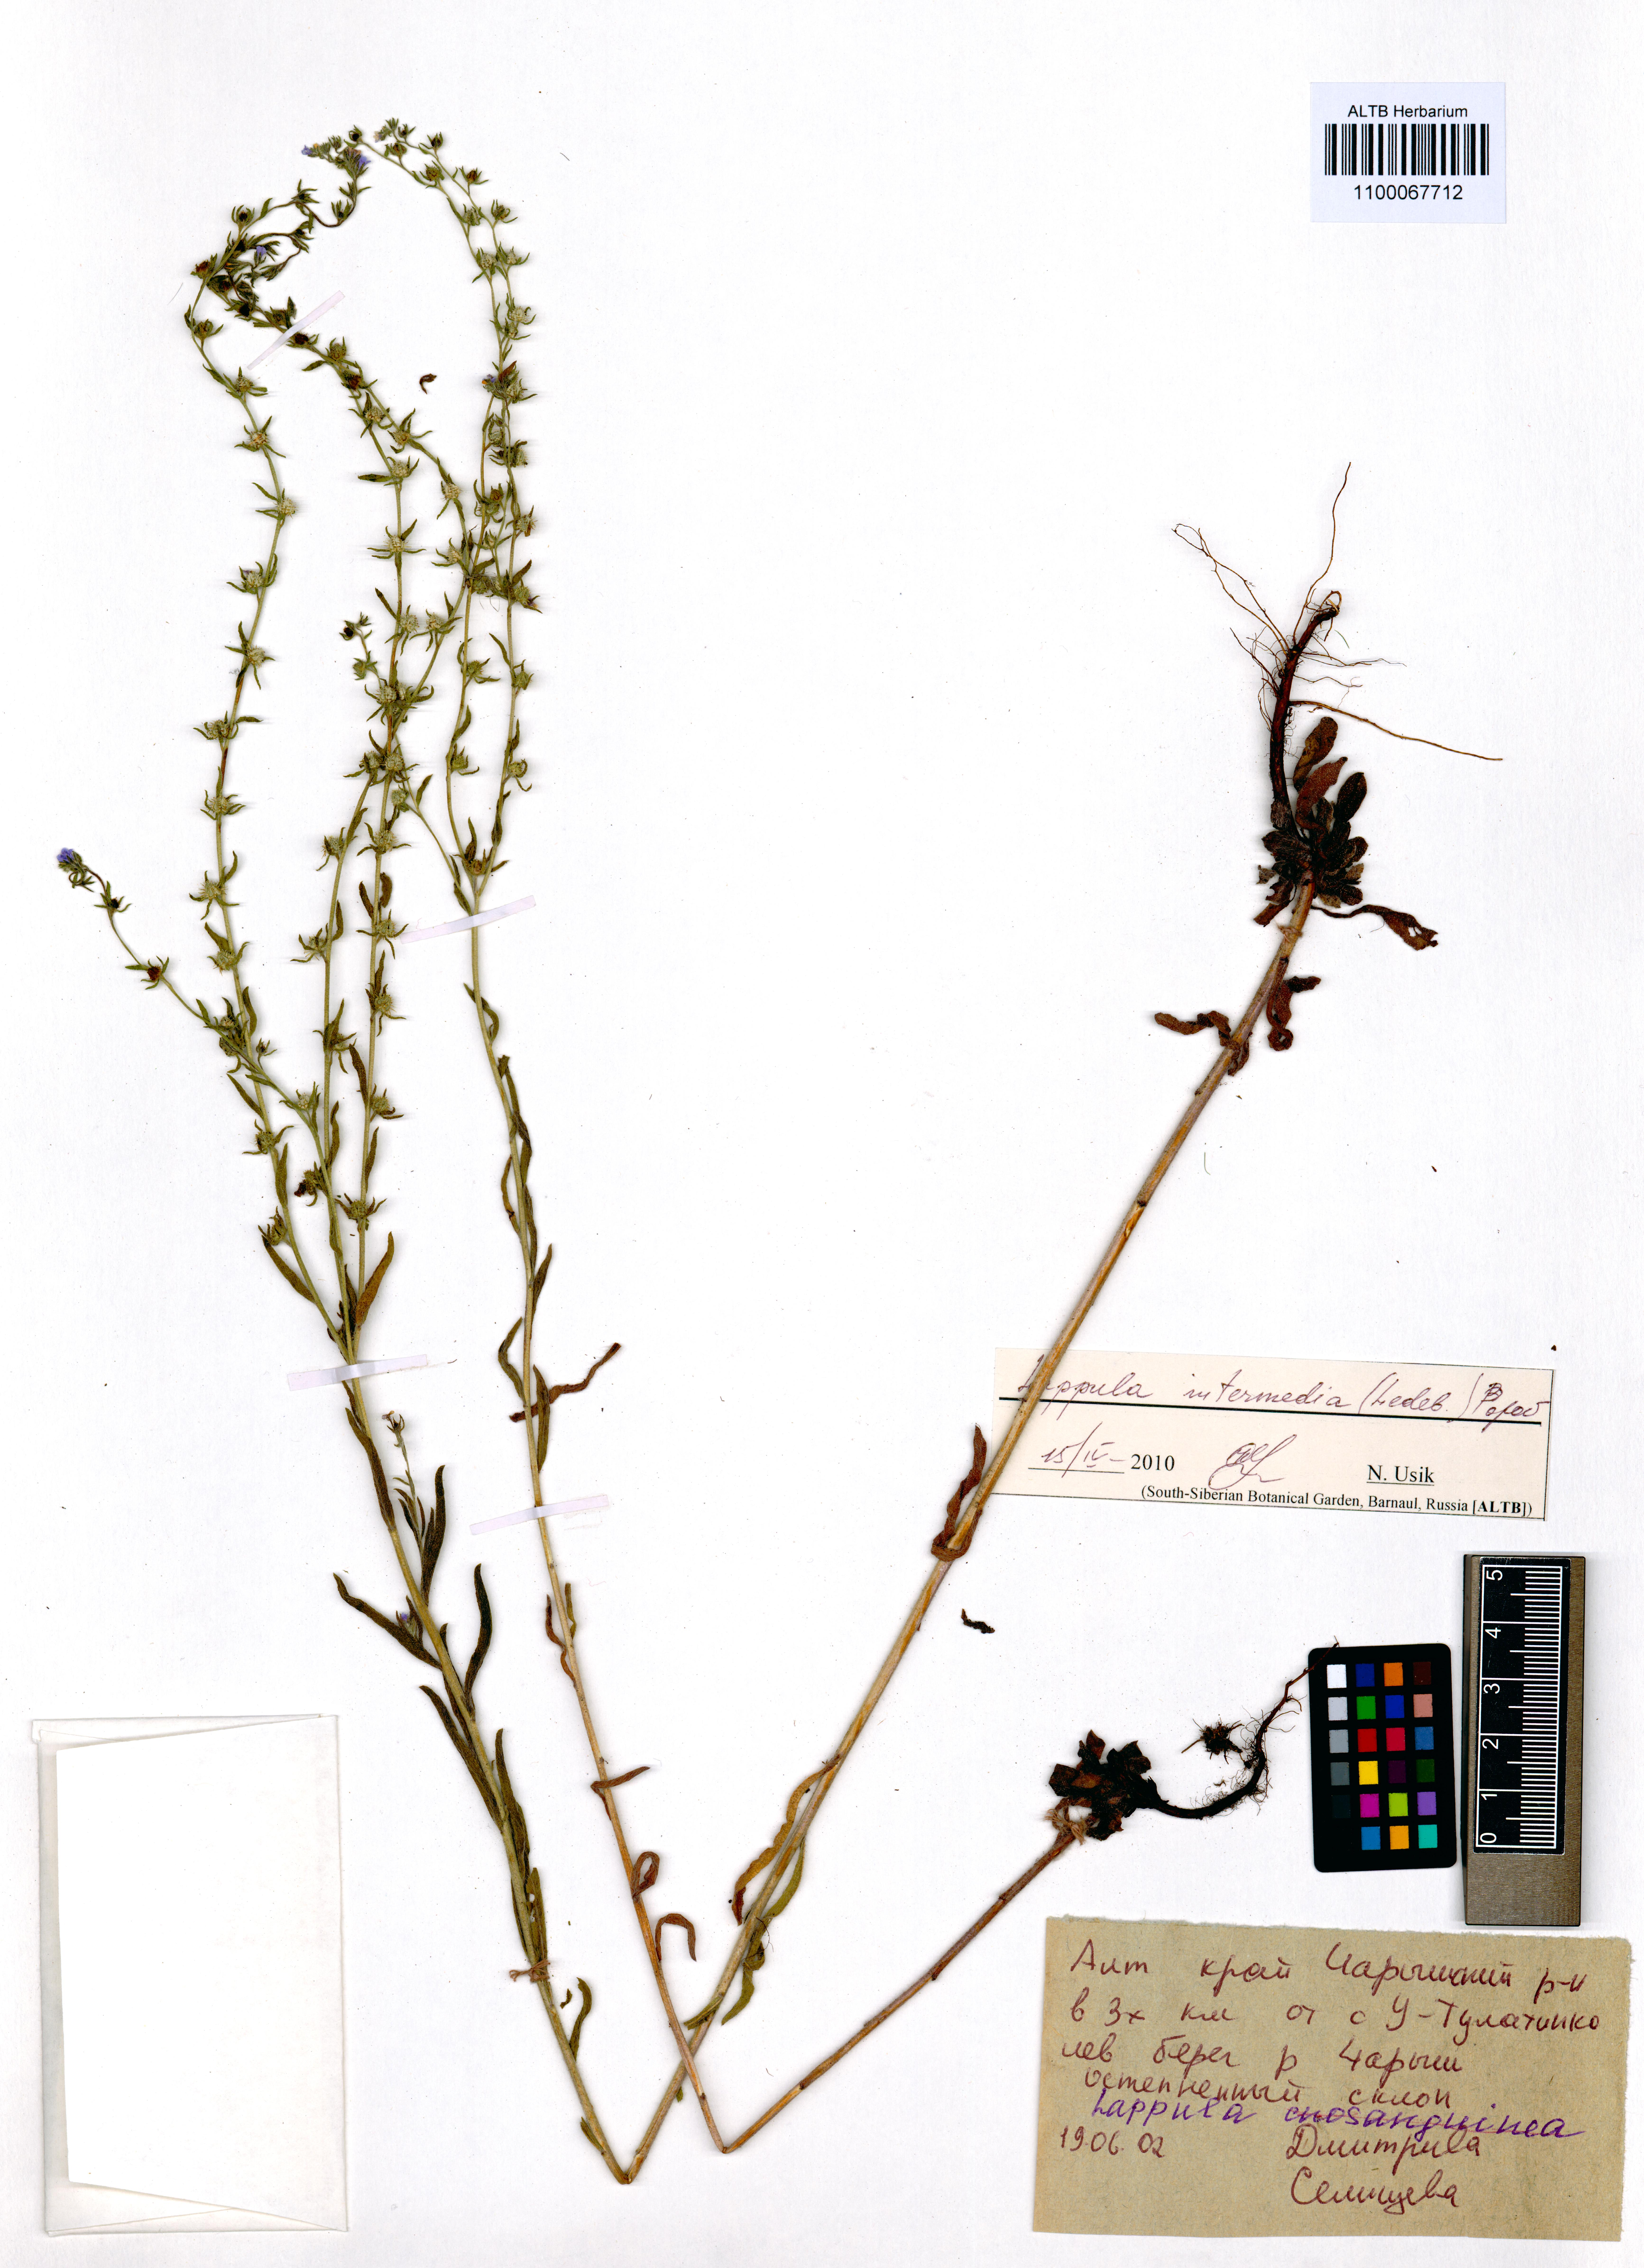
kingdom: Plantae
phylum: Tracheophyta
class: Magnoliopsida
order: Boraginales
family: Boraginaceae
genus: Lappula
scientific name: Lappula intermedia
